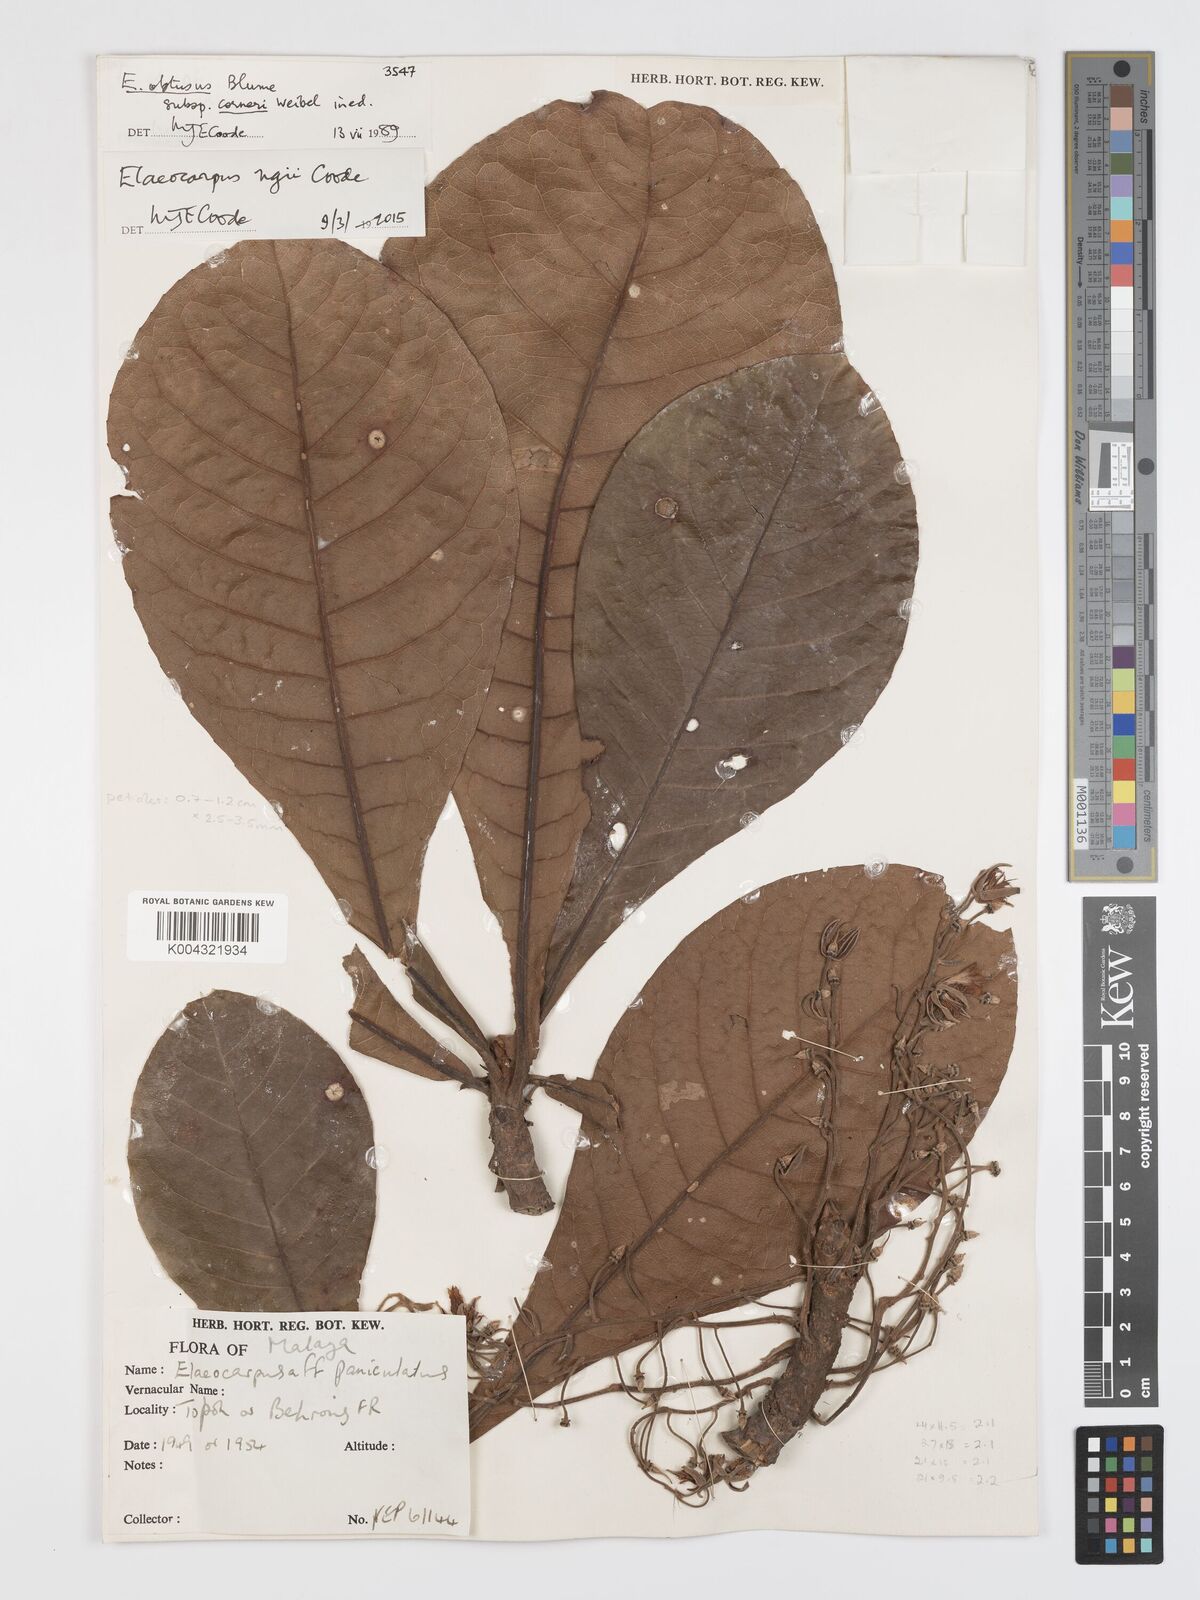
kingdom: Plantae
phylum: Tracheophyta
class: Magnoliopsida
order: Oxalidales
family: Elaeocarpaceae
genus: Elaeocarpus
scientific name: Elaeocarpus obtusus
